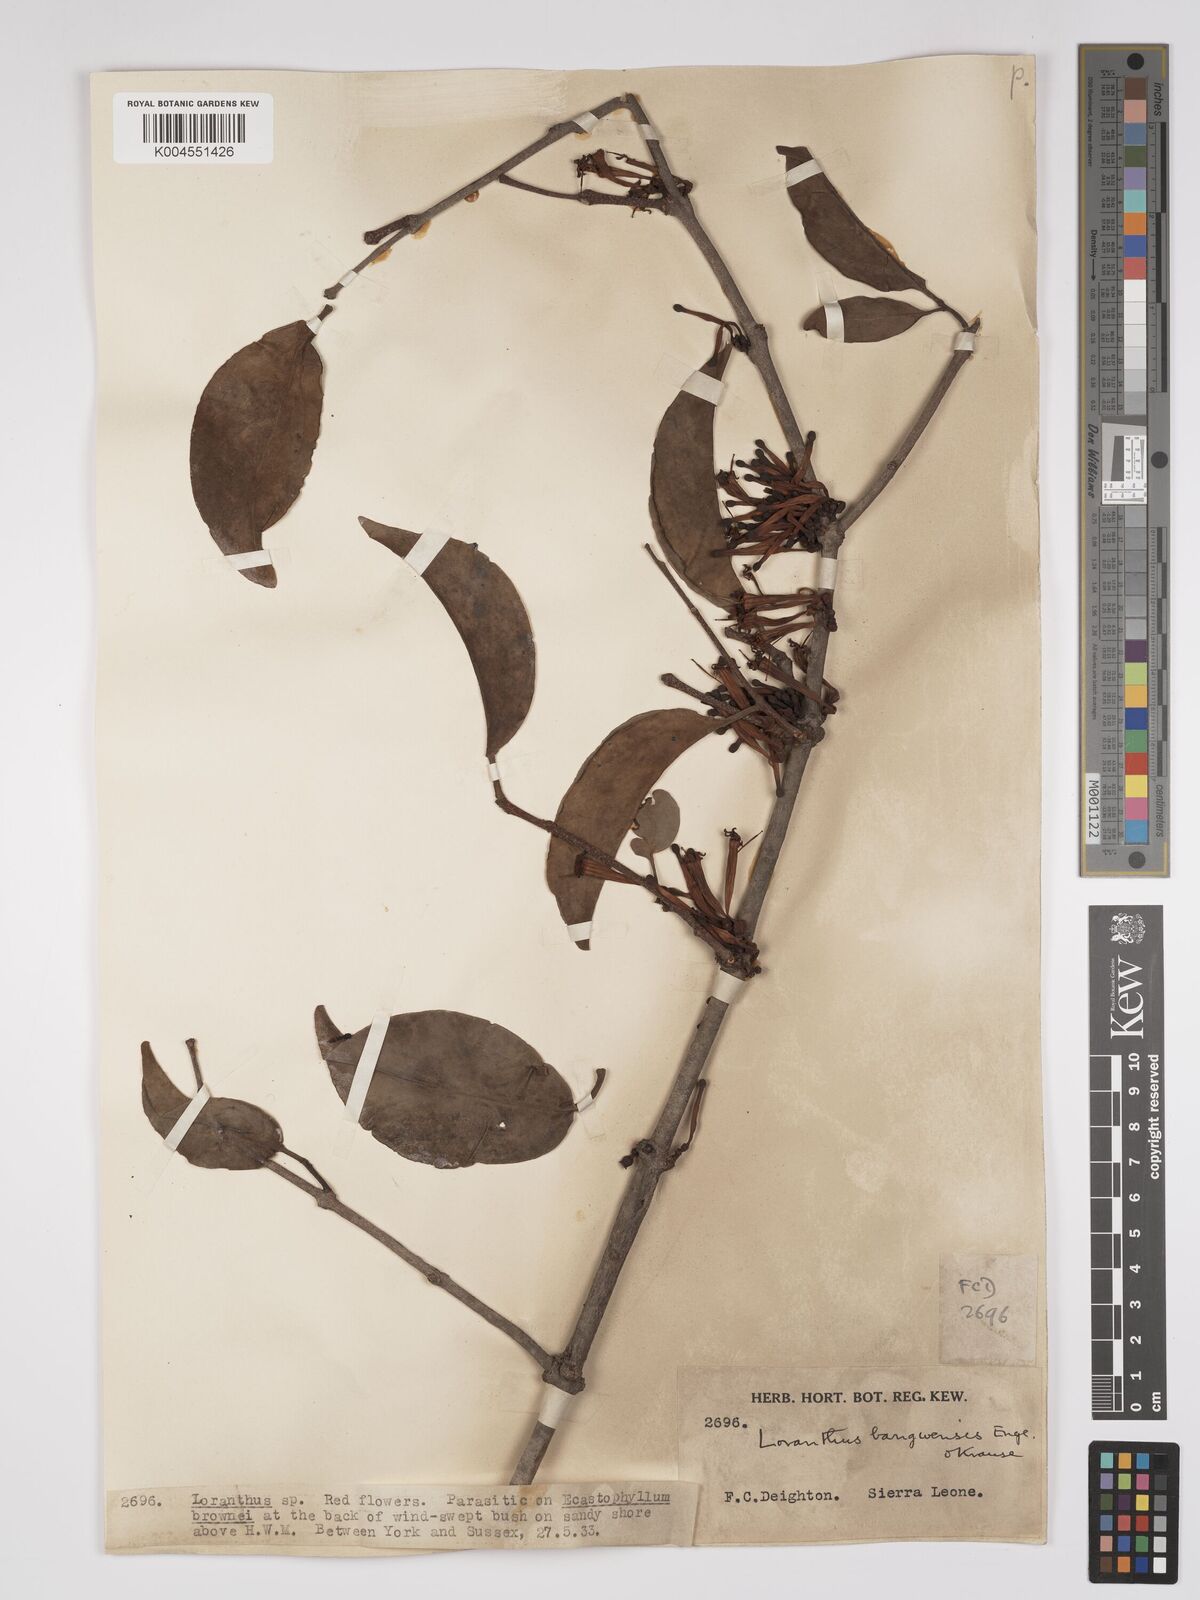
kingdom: Plantae
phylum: Tracheophyta
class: Magnoliopsida
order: Santalales
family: Loranthaceae
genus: Tapinanthus
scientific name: Tapinanthus bangwensis
